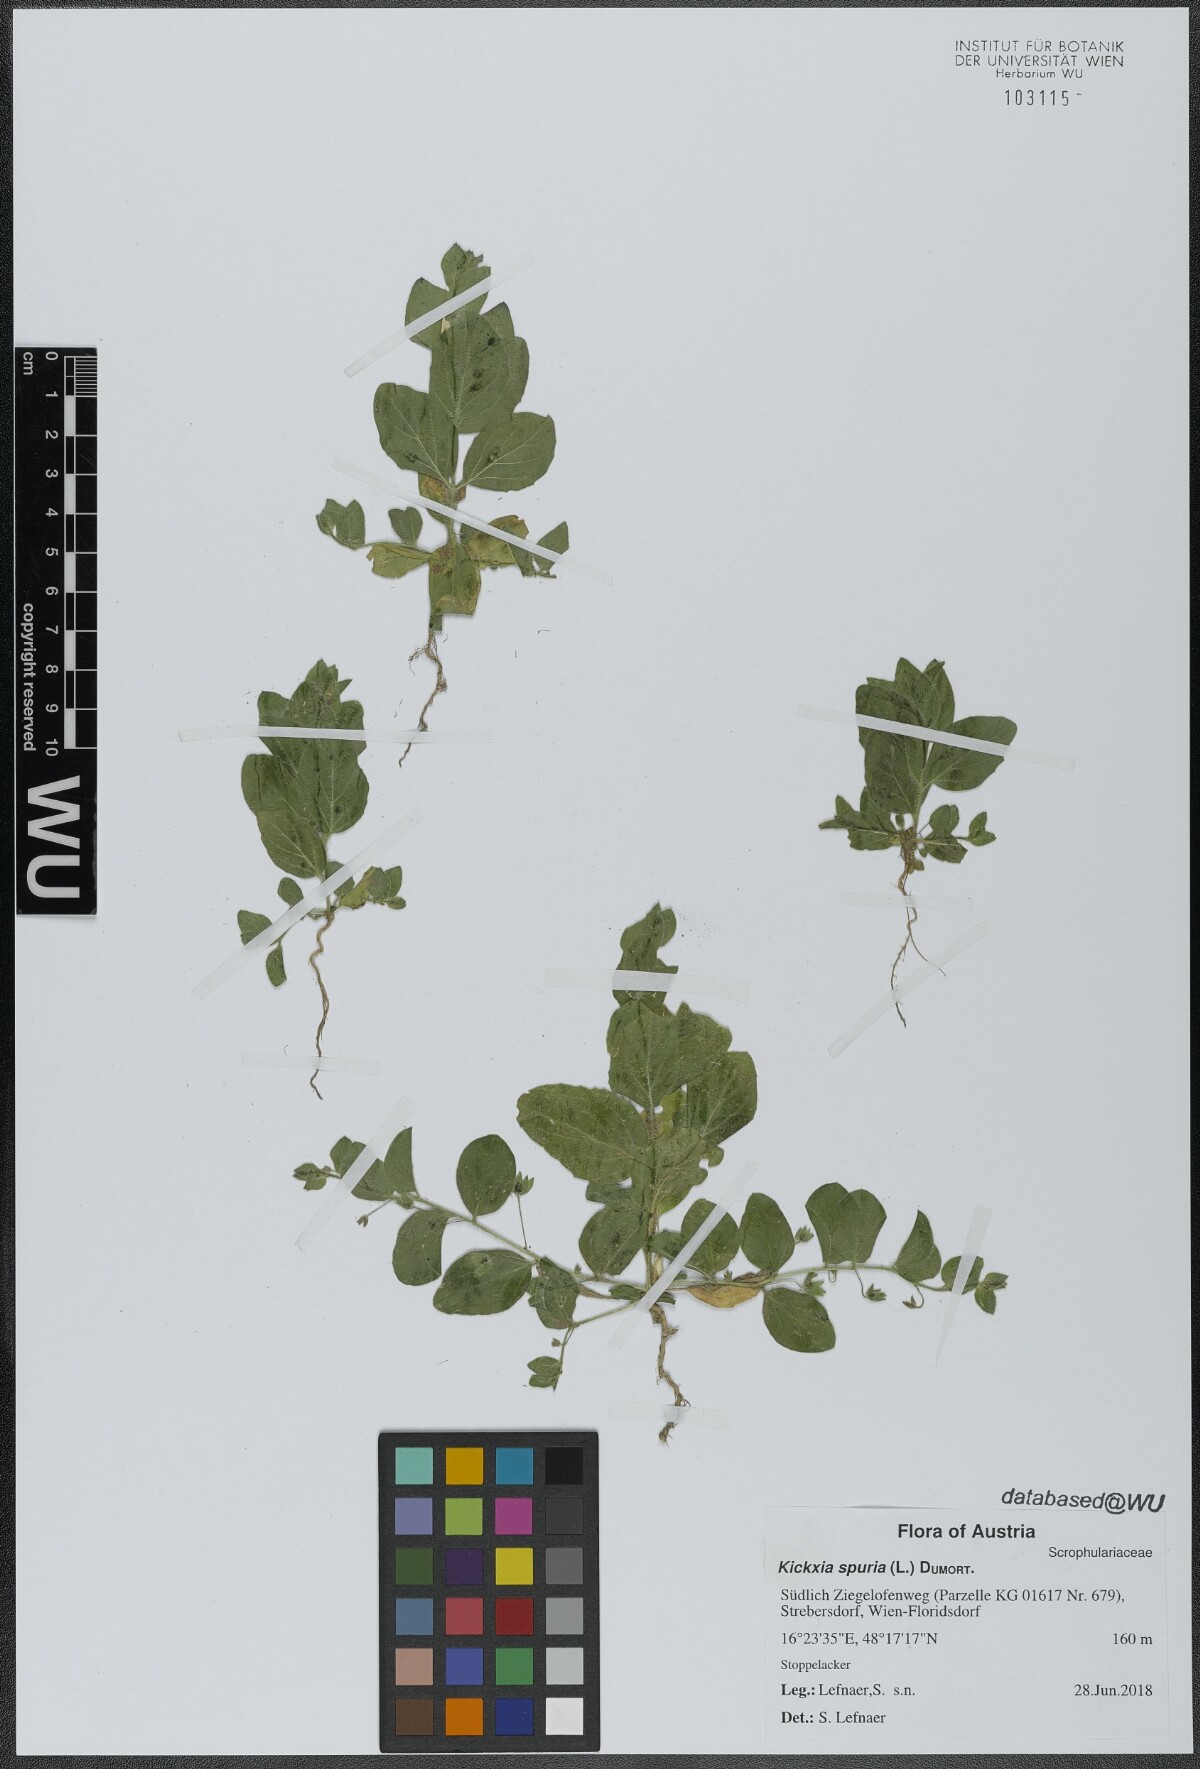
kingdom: Plantae
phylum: Tracheophyta
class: Magnoliopsida
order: Lamiales
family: Plantaginaceae
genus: Kickxia
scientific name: Kickxia spuria
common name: Round-leaved fluellen
